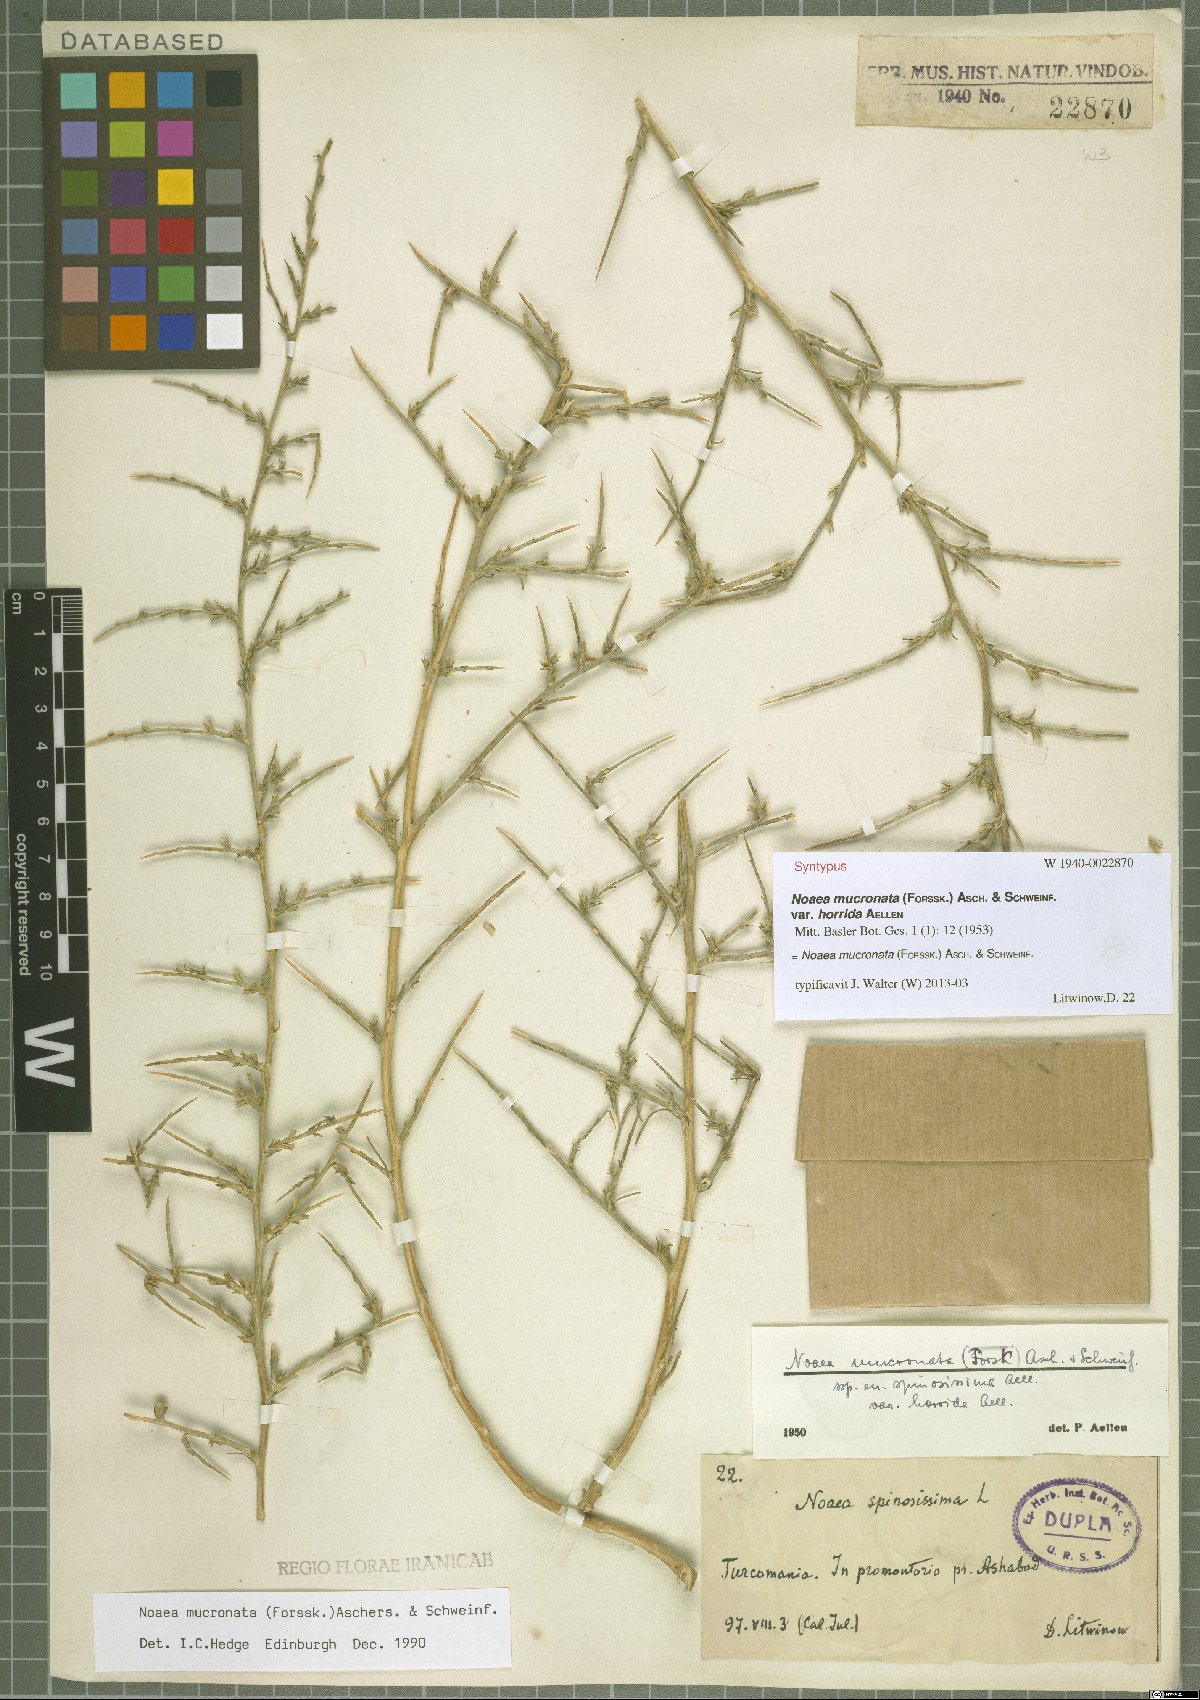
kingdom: Plantae
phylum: Tracheophyta
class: Magnoliopsida
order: Caryophyllales
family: Amaranthaceae
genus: Noaea
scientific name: Noaea mucronata
